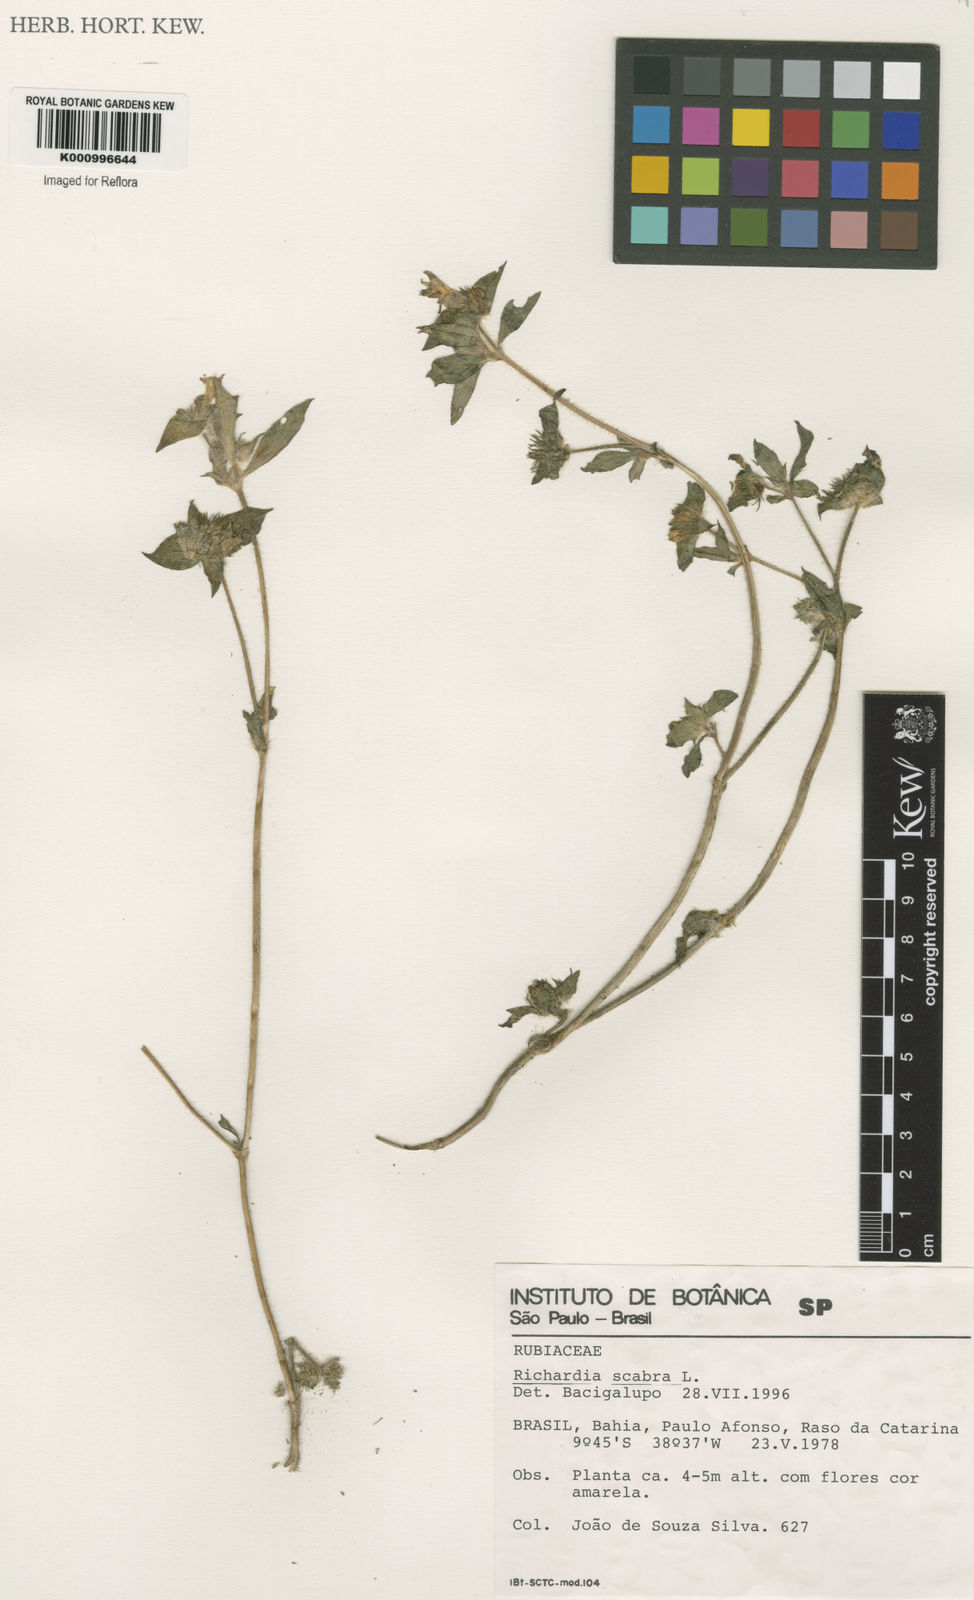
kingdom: Plantae
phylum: Tracheophyta
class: Magnoliopsida
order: Gentianales
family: Rubiaceae
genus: Richardia
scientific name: Richardia scabra
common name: Rough mexican clover
